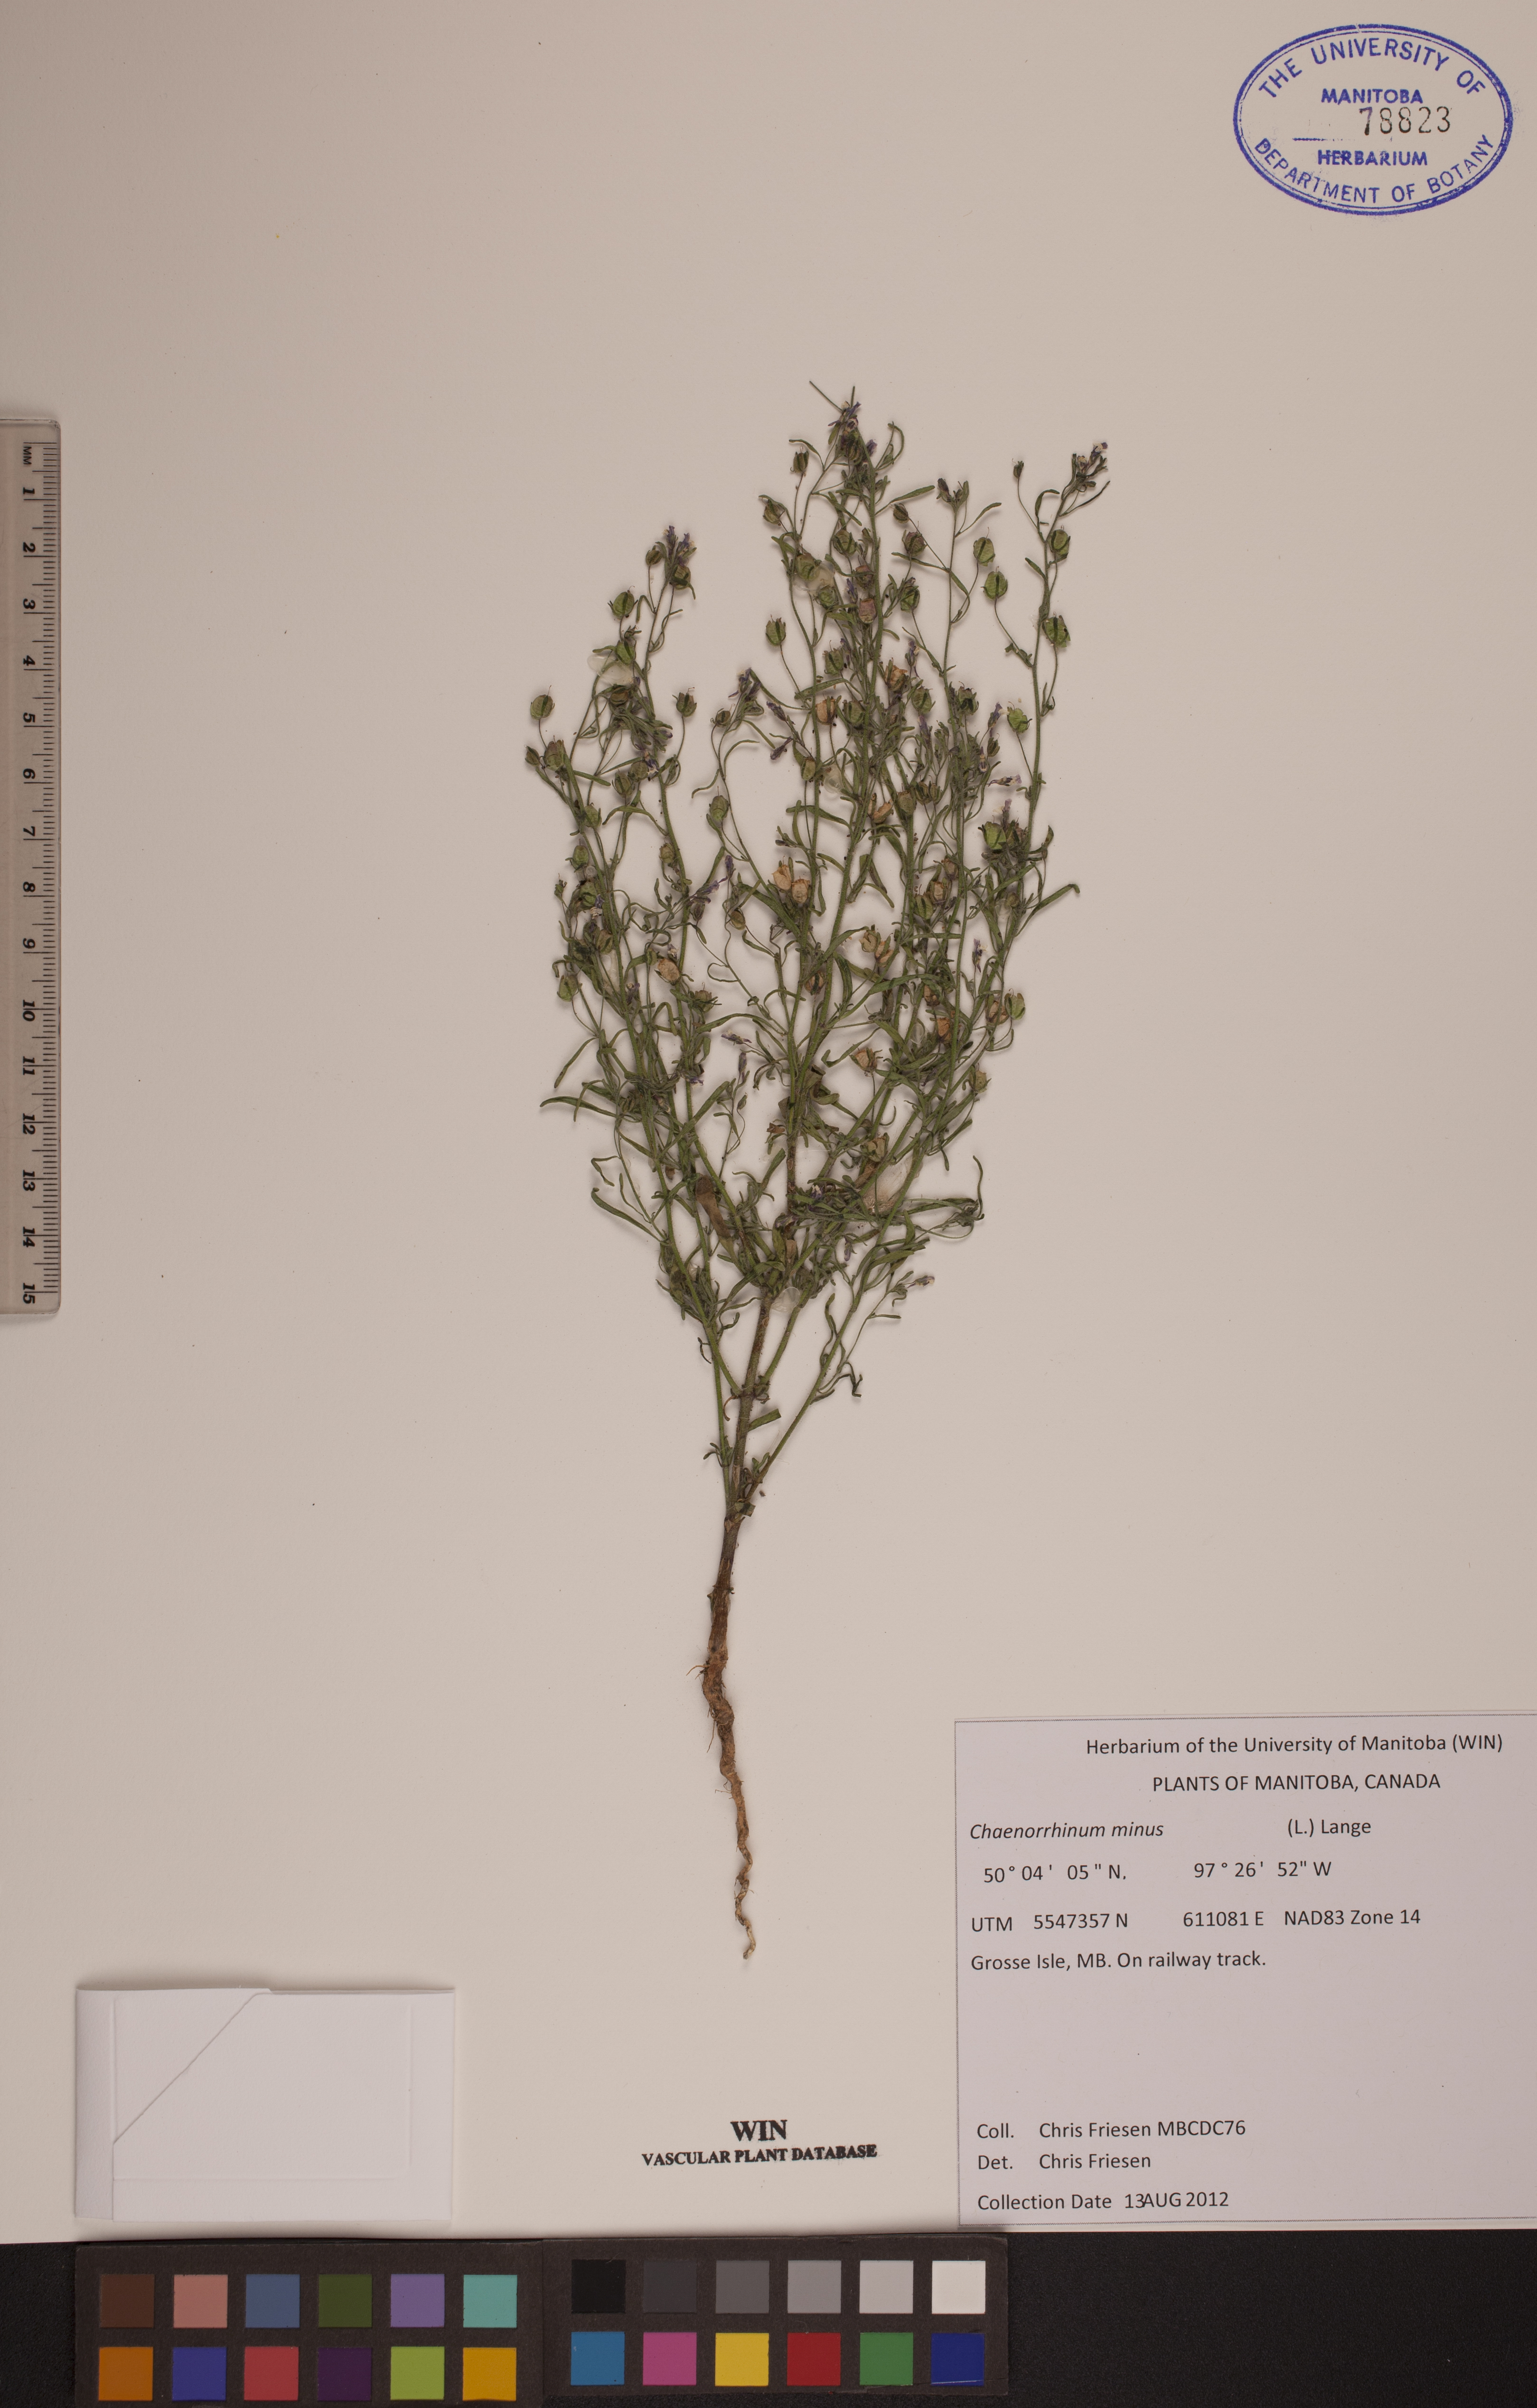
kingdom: Plantae
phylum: Tracheophyta
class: Magnoliopsida
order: Lamiales
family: Plantaginaceae
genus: Chaenorhinum
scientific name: Chaenorhinum minus
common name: Dwarf snapdragon
